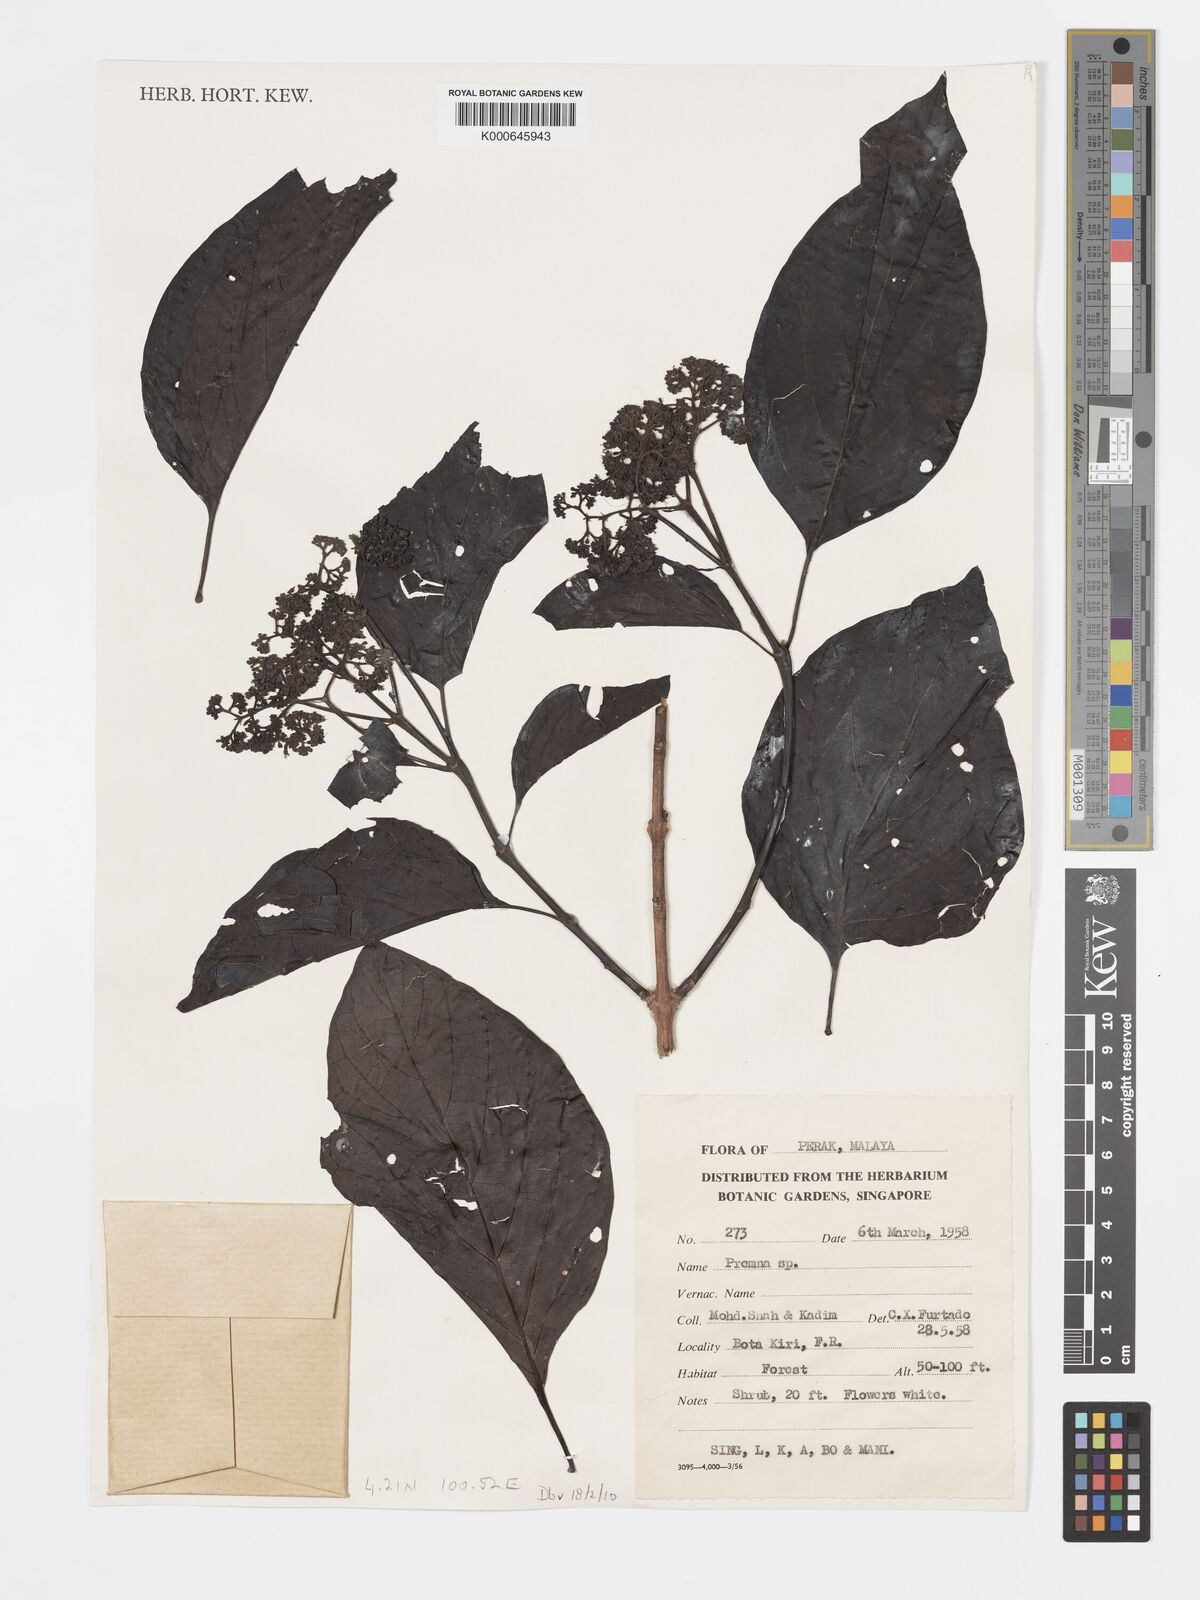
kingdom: Plantae
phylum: Tracheophyta
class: Magnoliopsida
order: Lamiales
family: Lamiaceae
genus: Premna
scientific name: Premna serratifolia
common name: Bastard guelder
